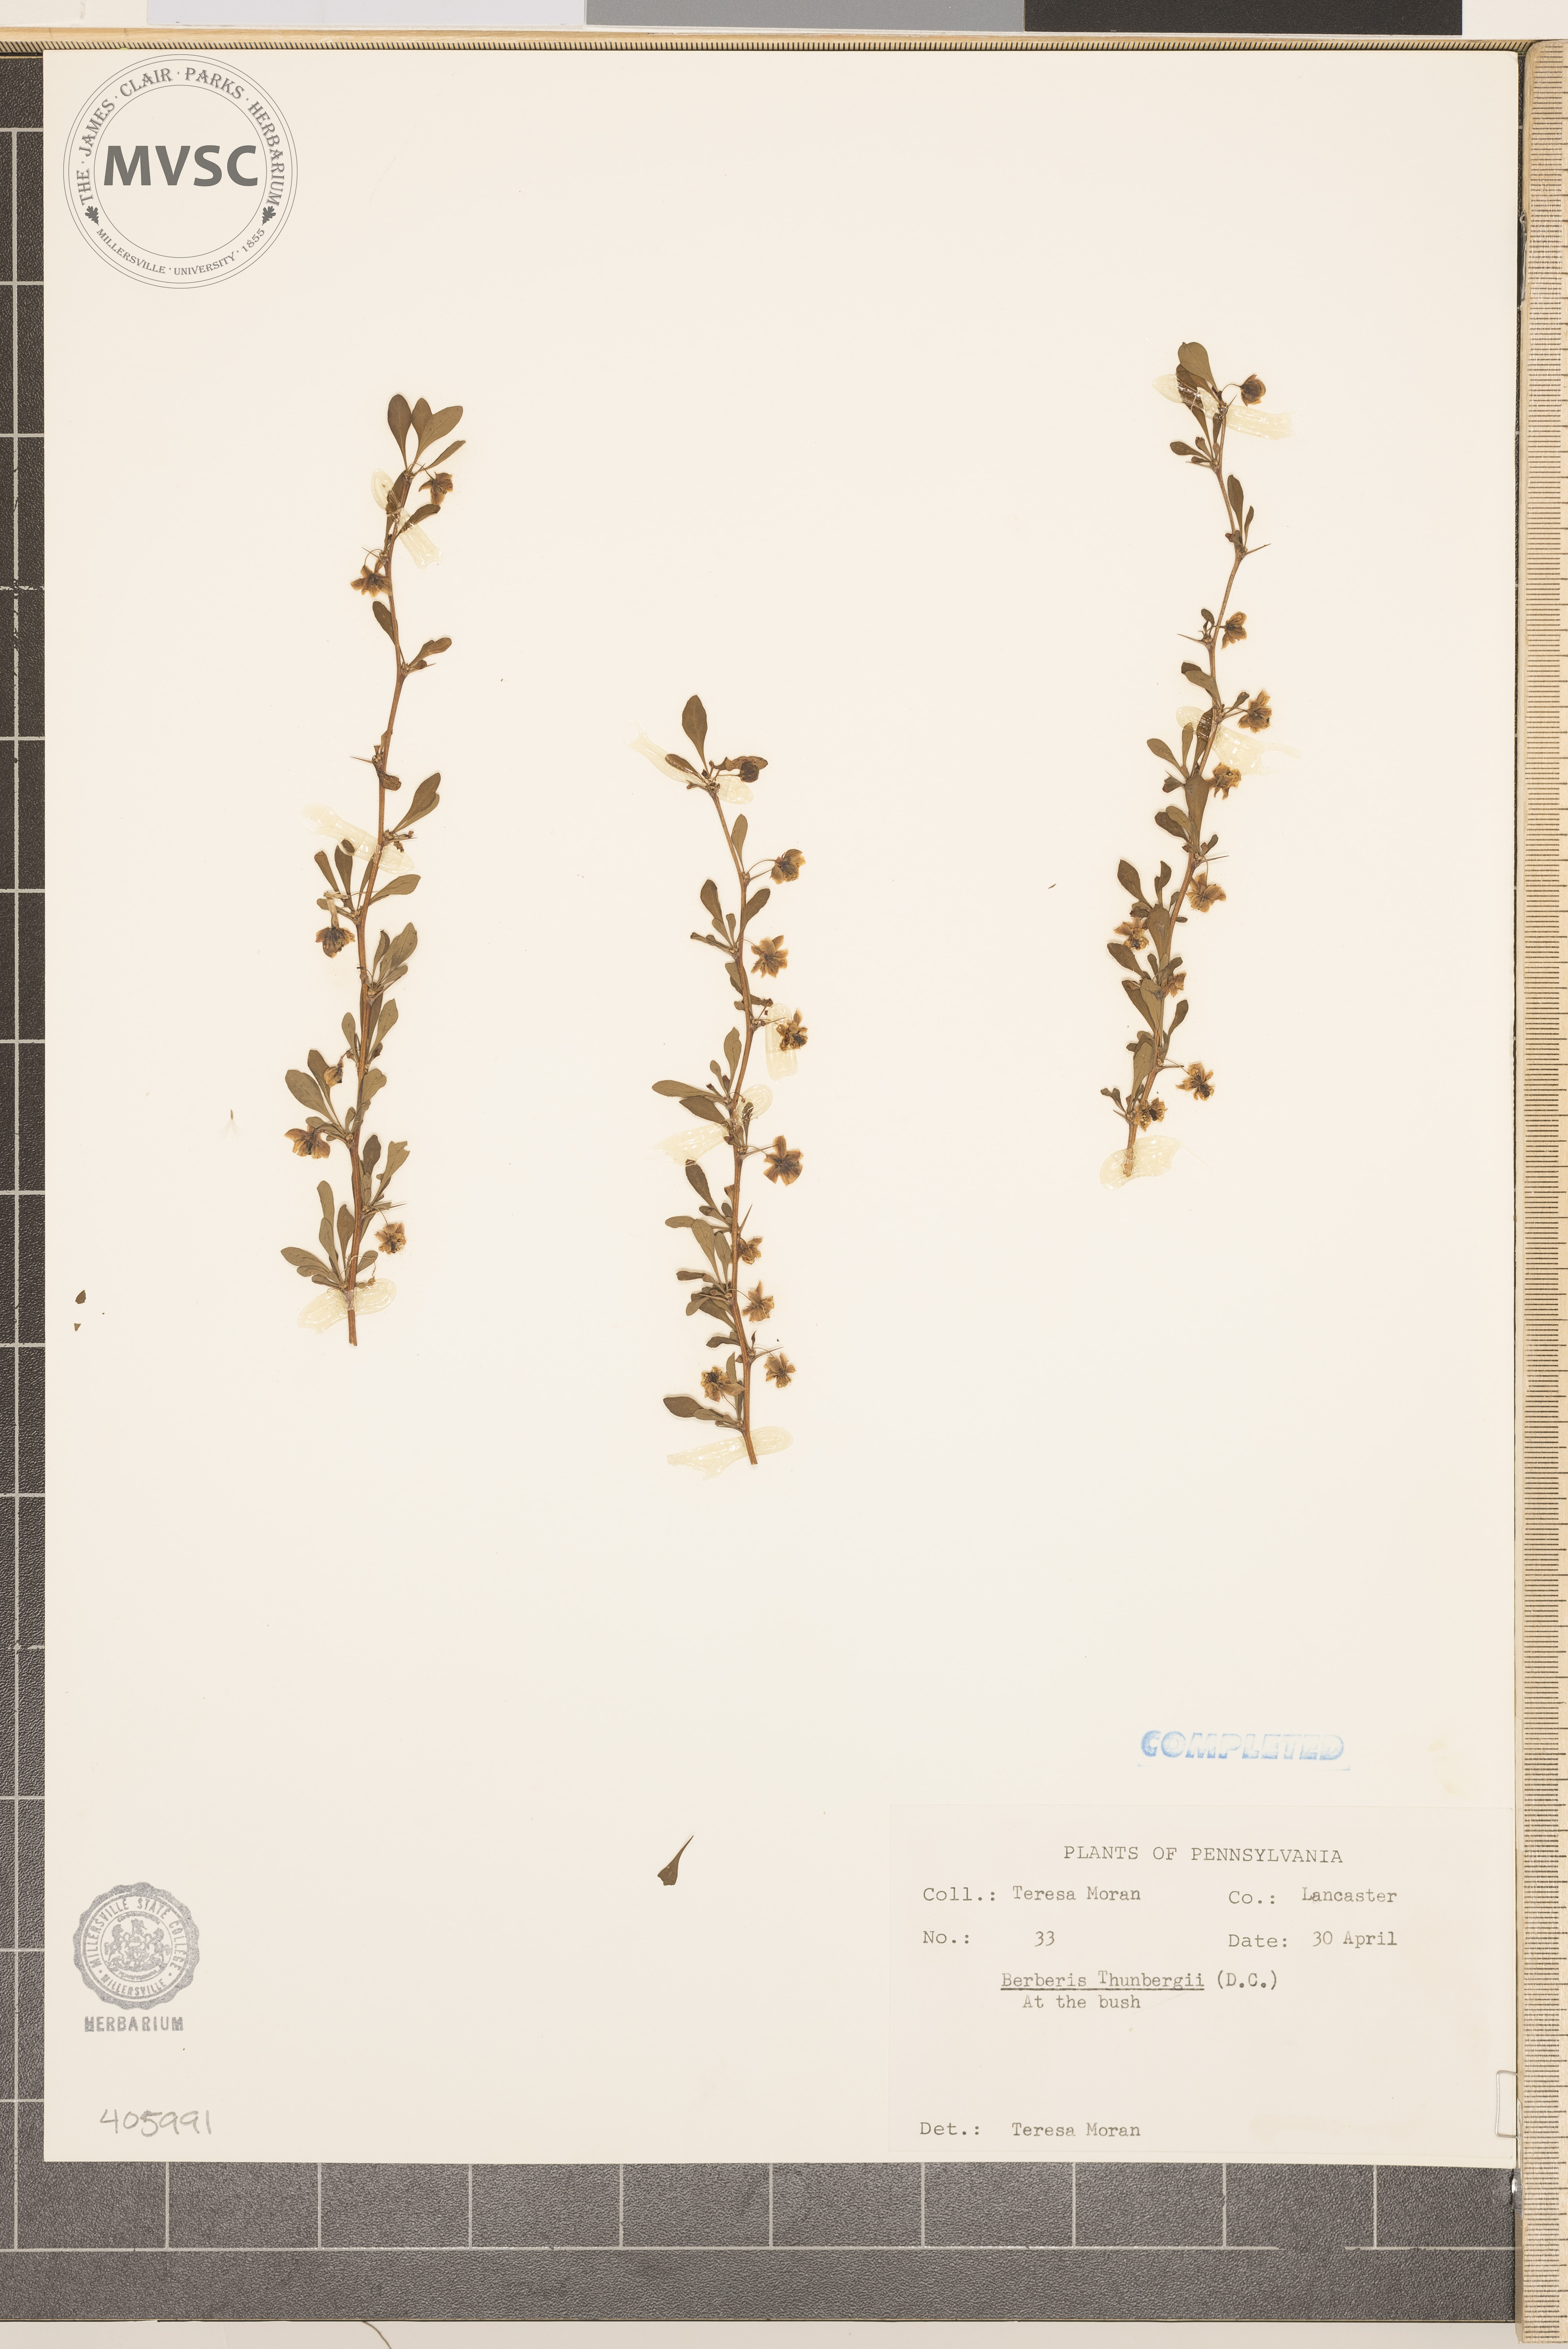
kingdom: Plantae
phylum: Tracheophyta
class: Magnoliopsida
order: Ranunculales
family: Berberidaceae
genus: Berberis
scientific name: Berberis thunbergii
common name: Japanese barberry
